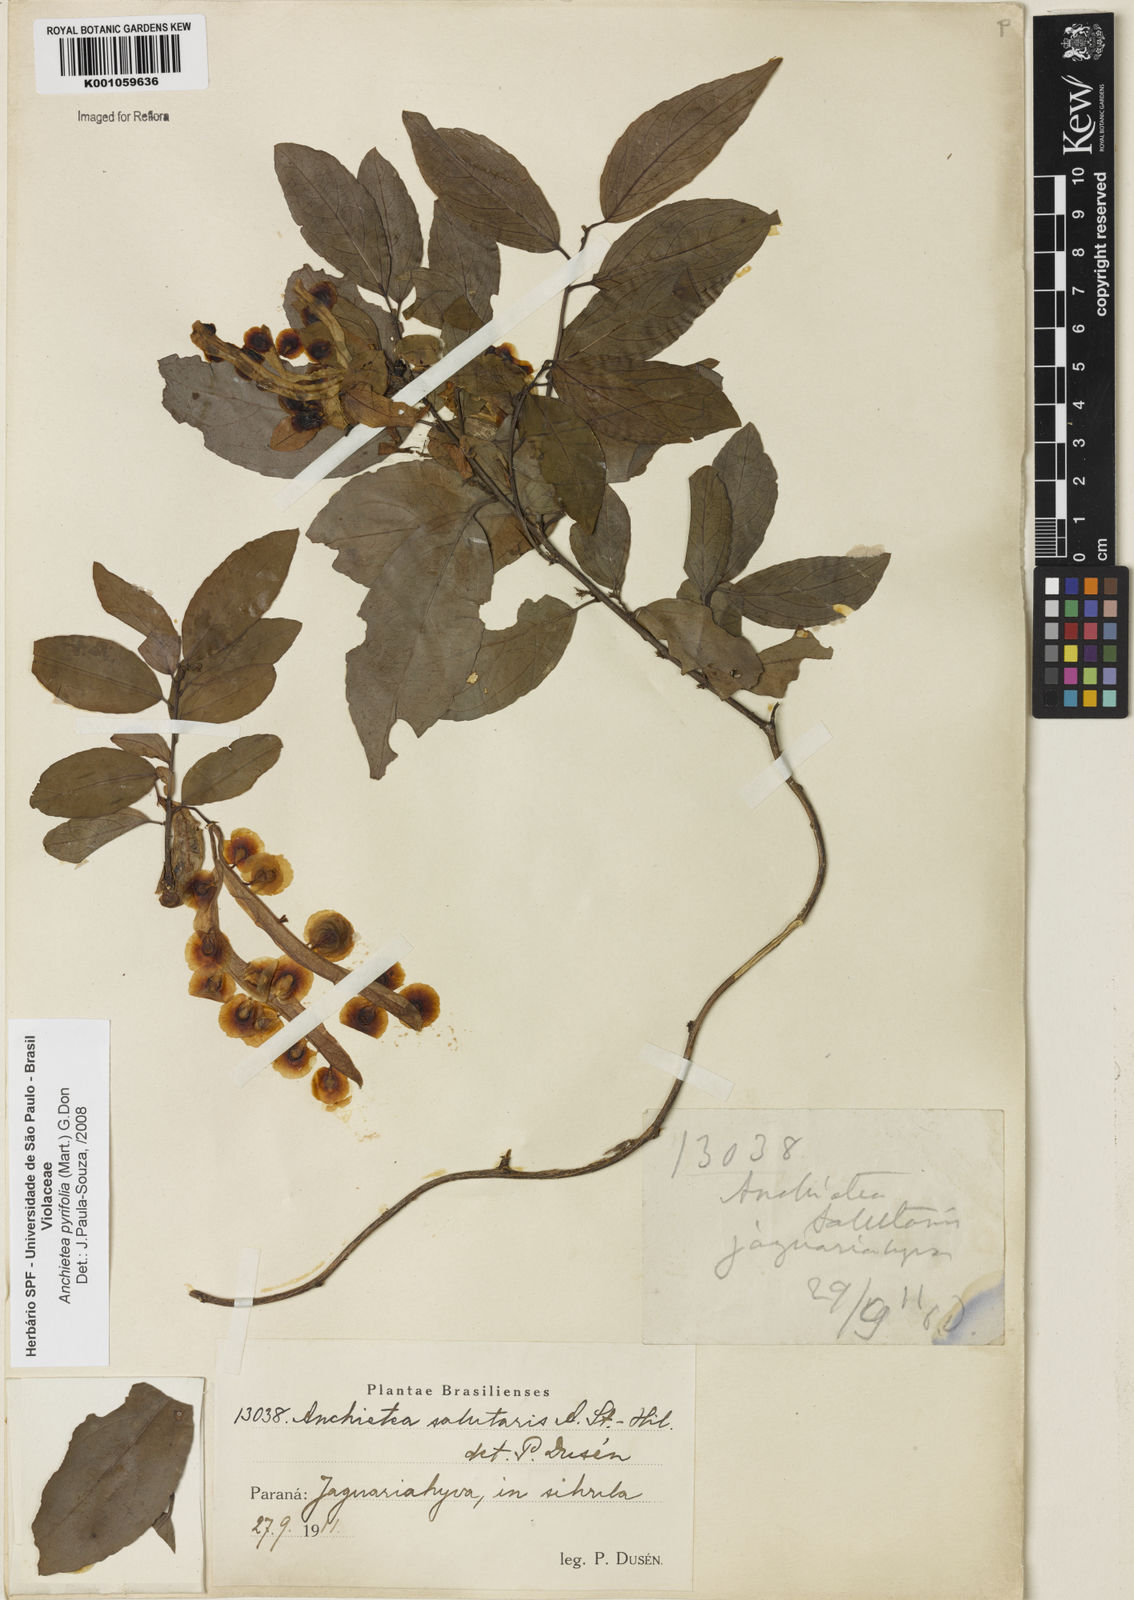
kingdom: Plantae
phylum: Tracheophyta
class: Magnoliopsida
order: Malpighiales
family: Violaceae
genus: Anchietea
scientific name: Anchietea pyrifolia
